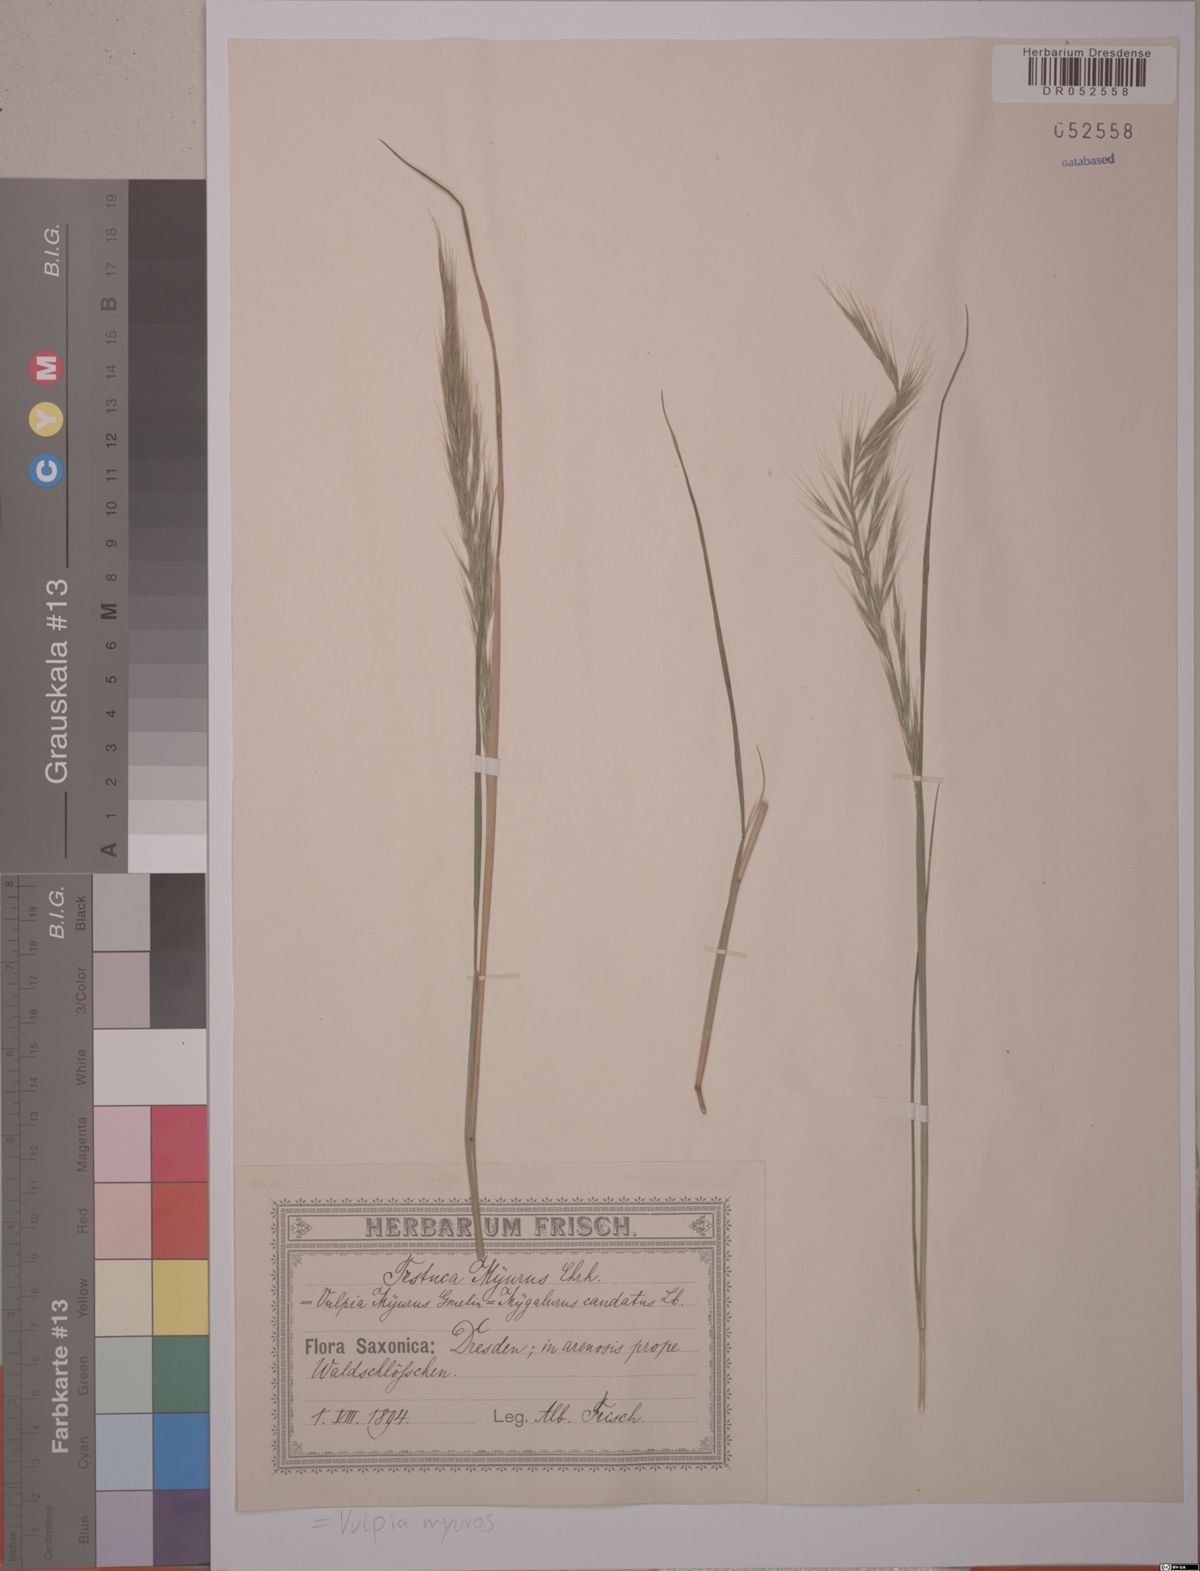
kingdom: Plantae
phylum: Tracheophyta
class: Liliopsida
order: Poales
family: Poaceae
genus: Festuca
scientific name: Festuca myuros
